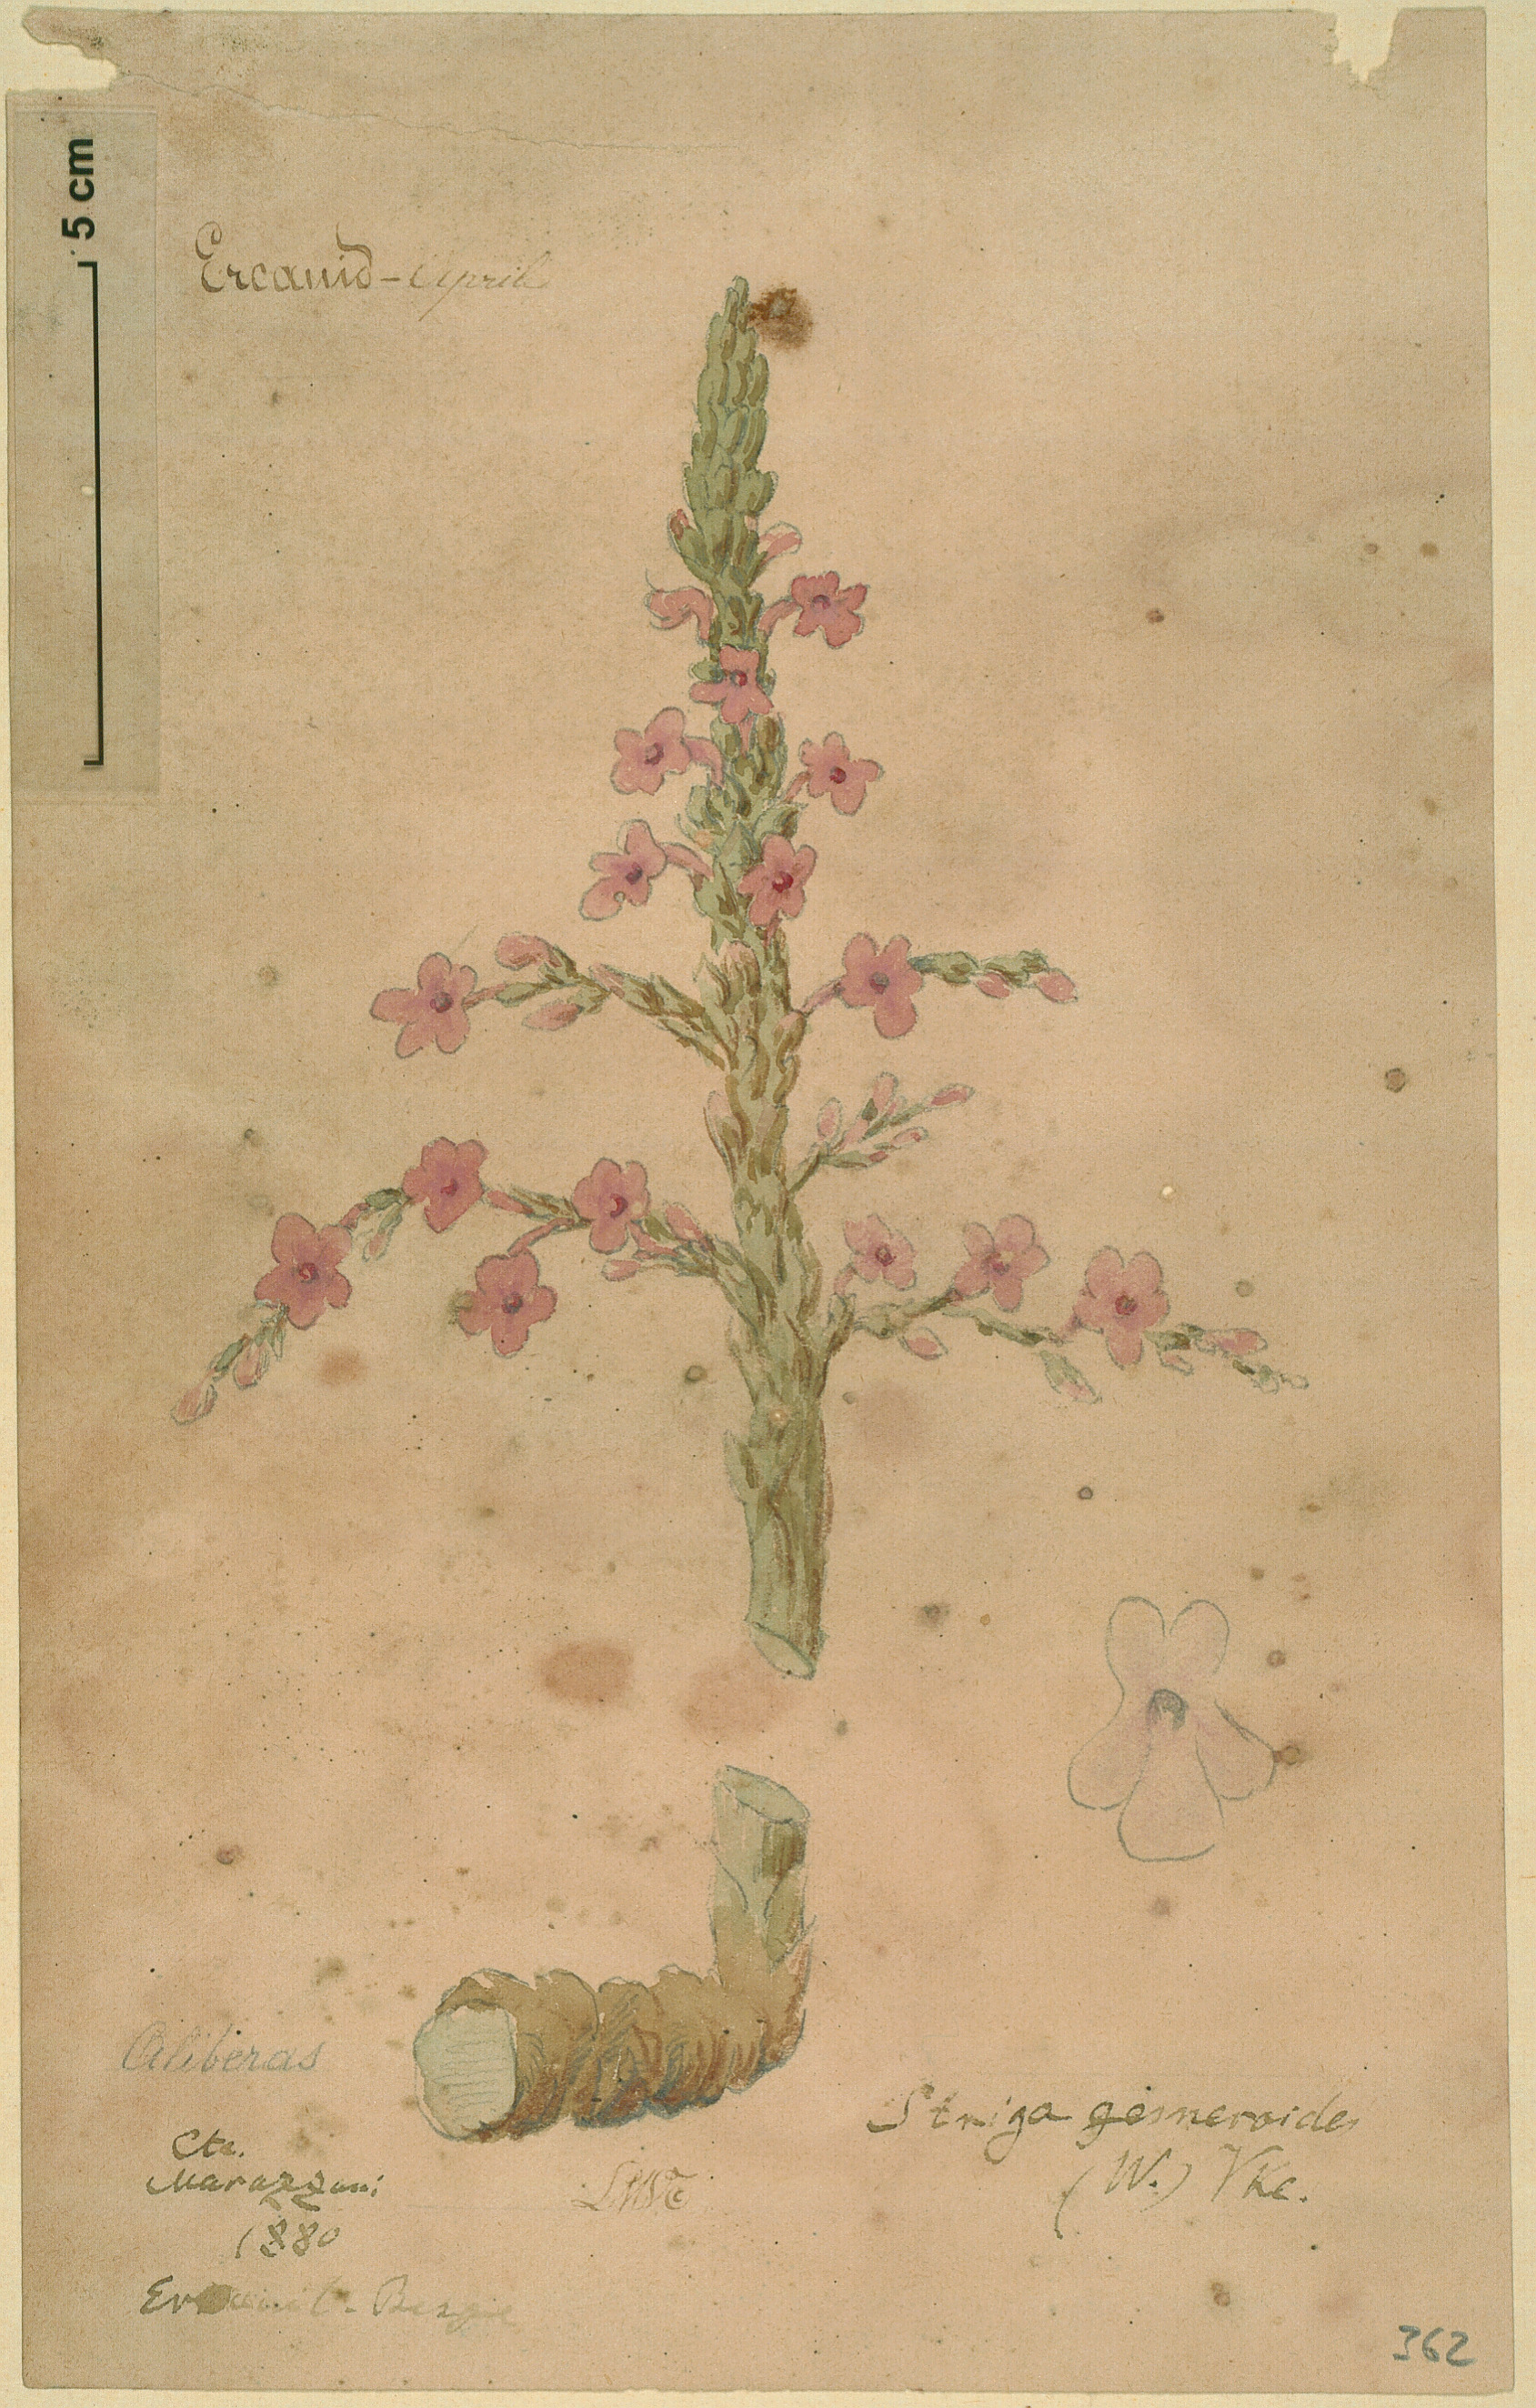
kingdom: Plantae
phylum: Tracheophyta
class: Magnoliopsida
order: Lamiales
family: Orobanchaceae
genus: Striga
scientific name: Striga gesnerioides
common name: Cowpea witchweed
